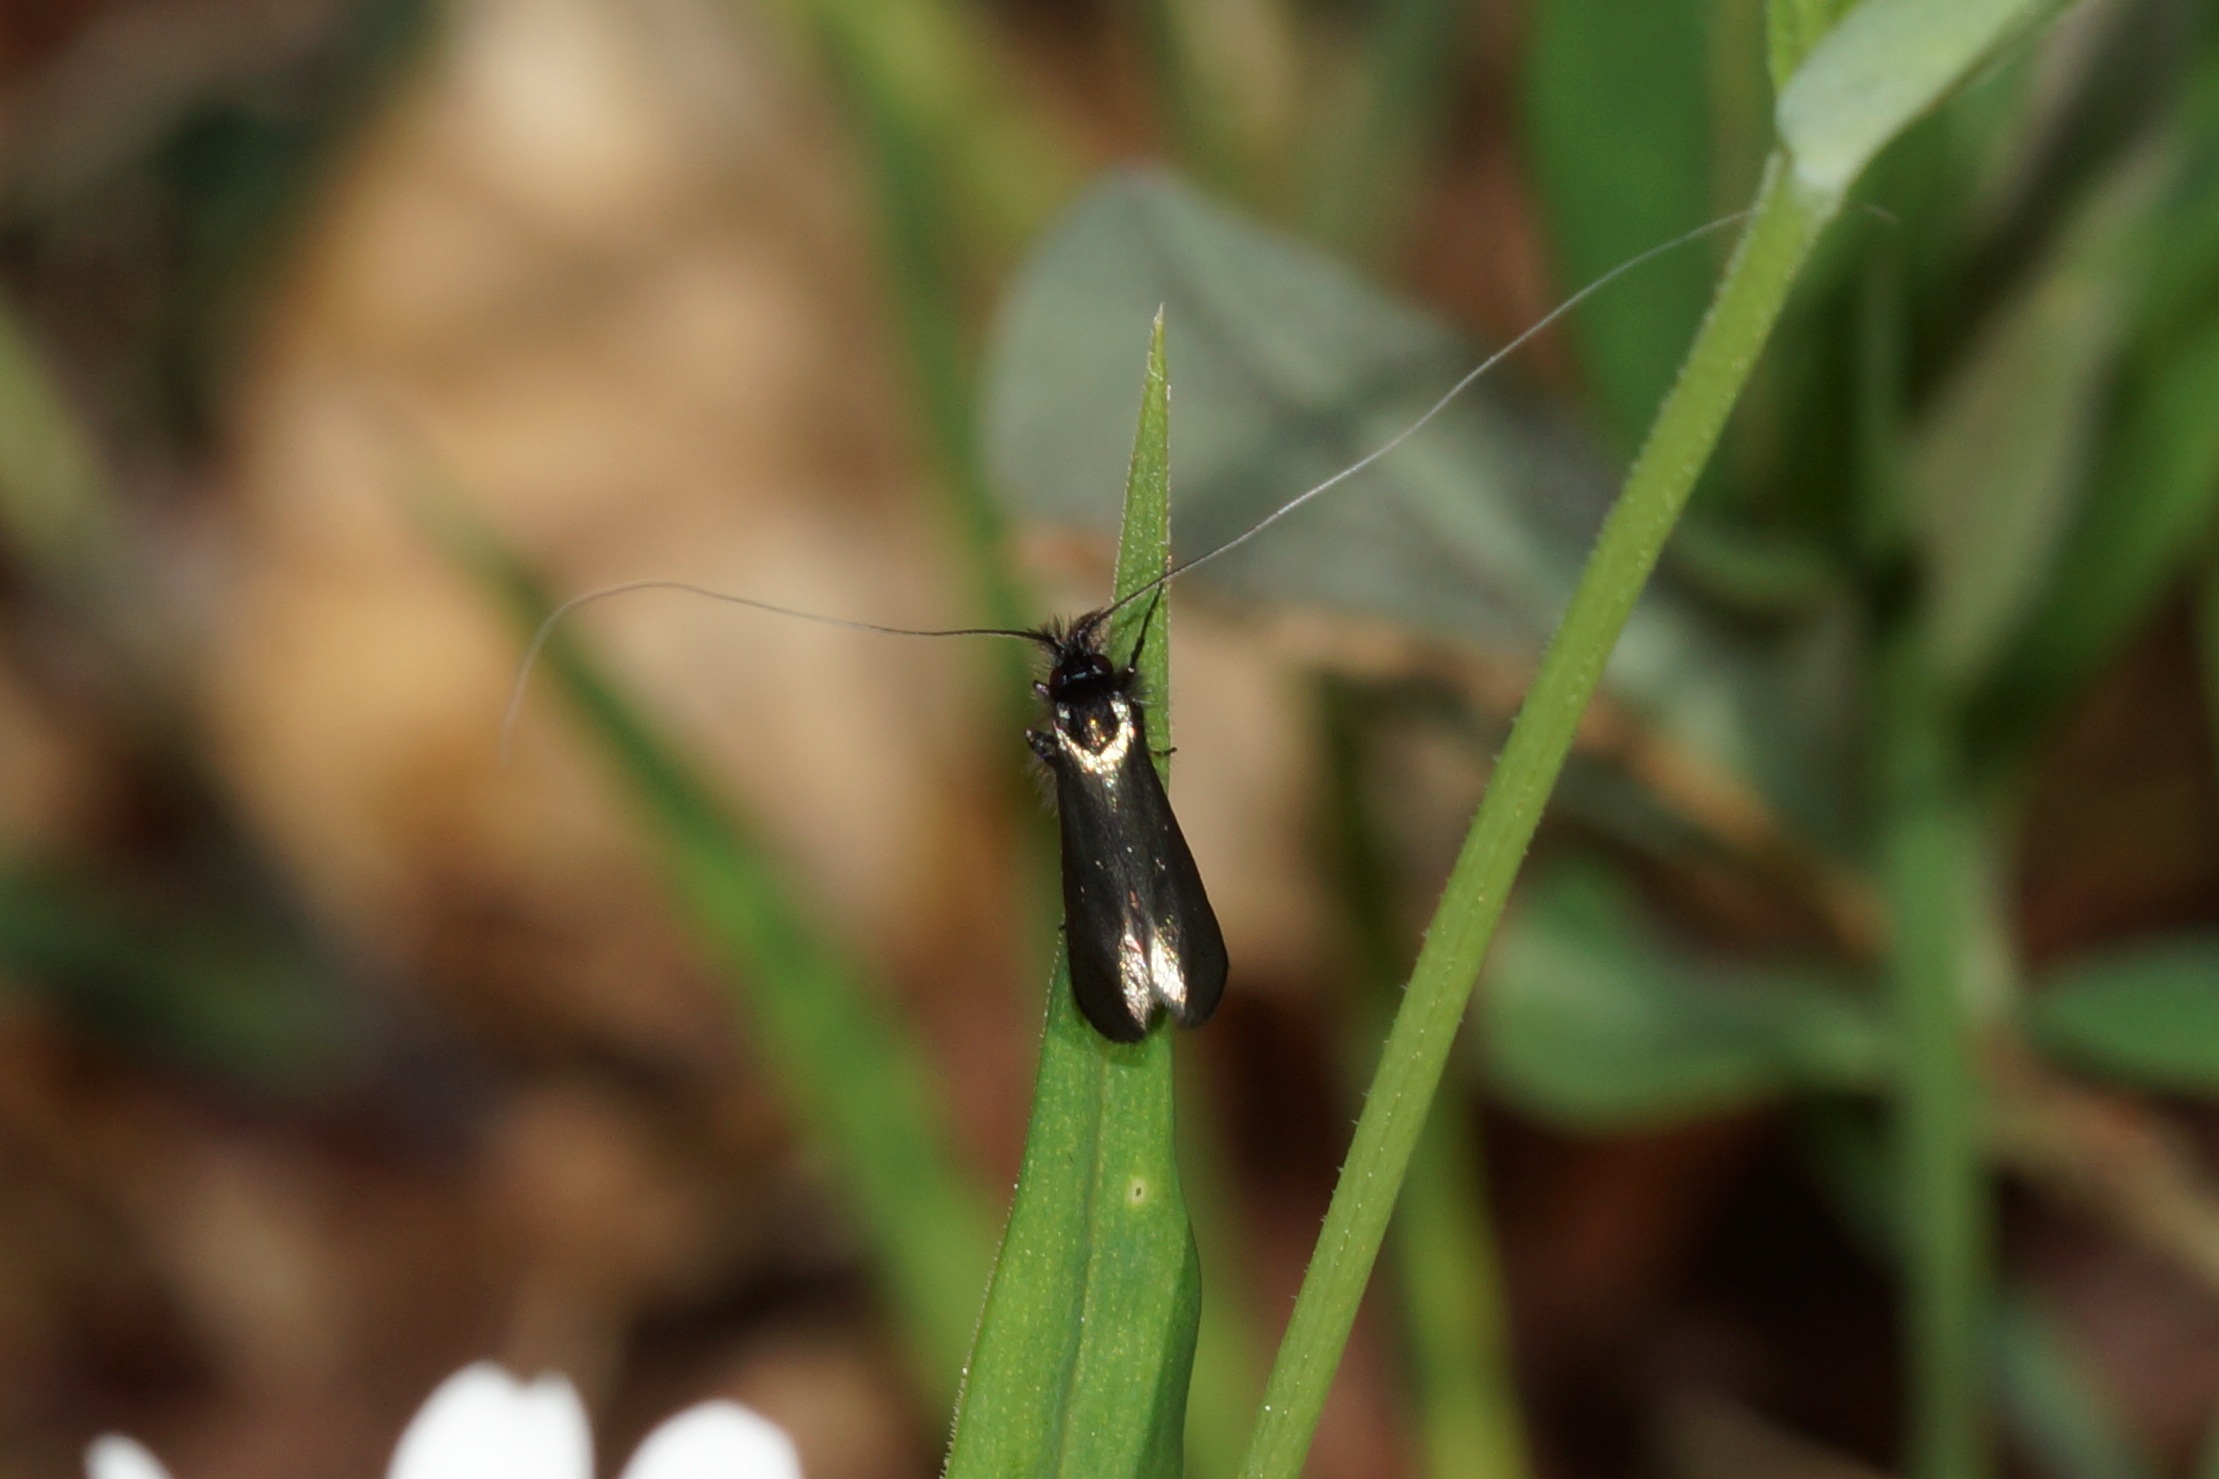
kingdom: Animalia
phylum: Arthropoda
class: Insecta
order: Lepidoptera
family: Adelidae
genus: Adela
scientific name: Adela viridella
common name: Egelanghornsmøl
